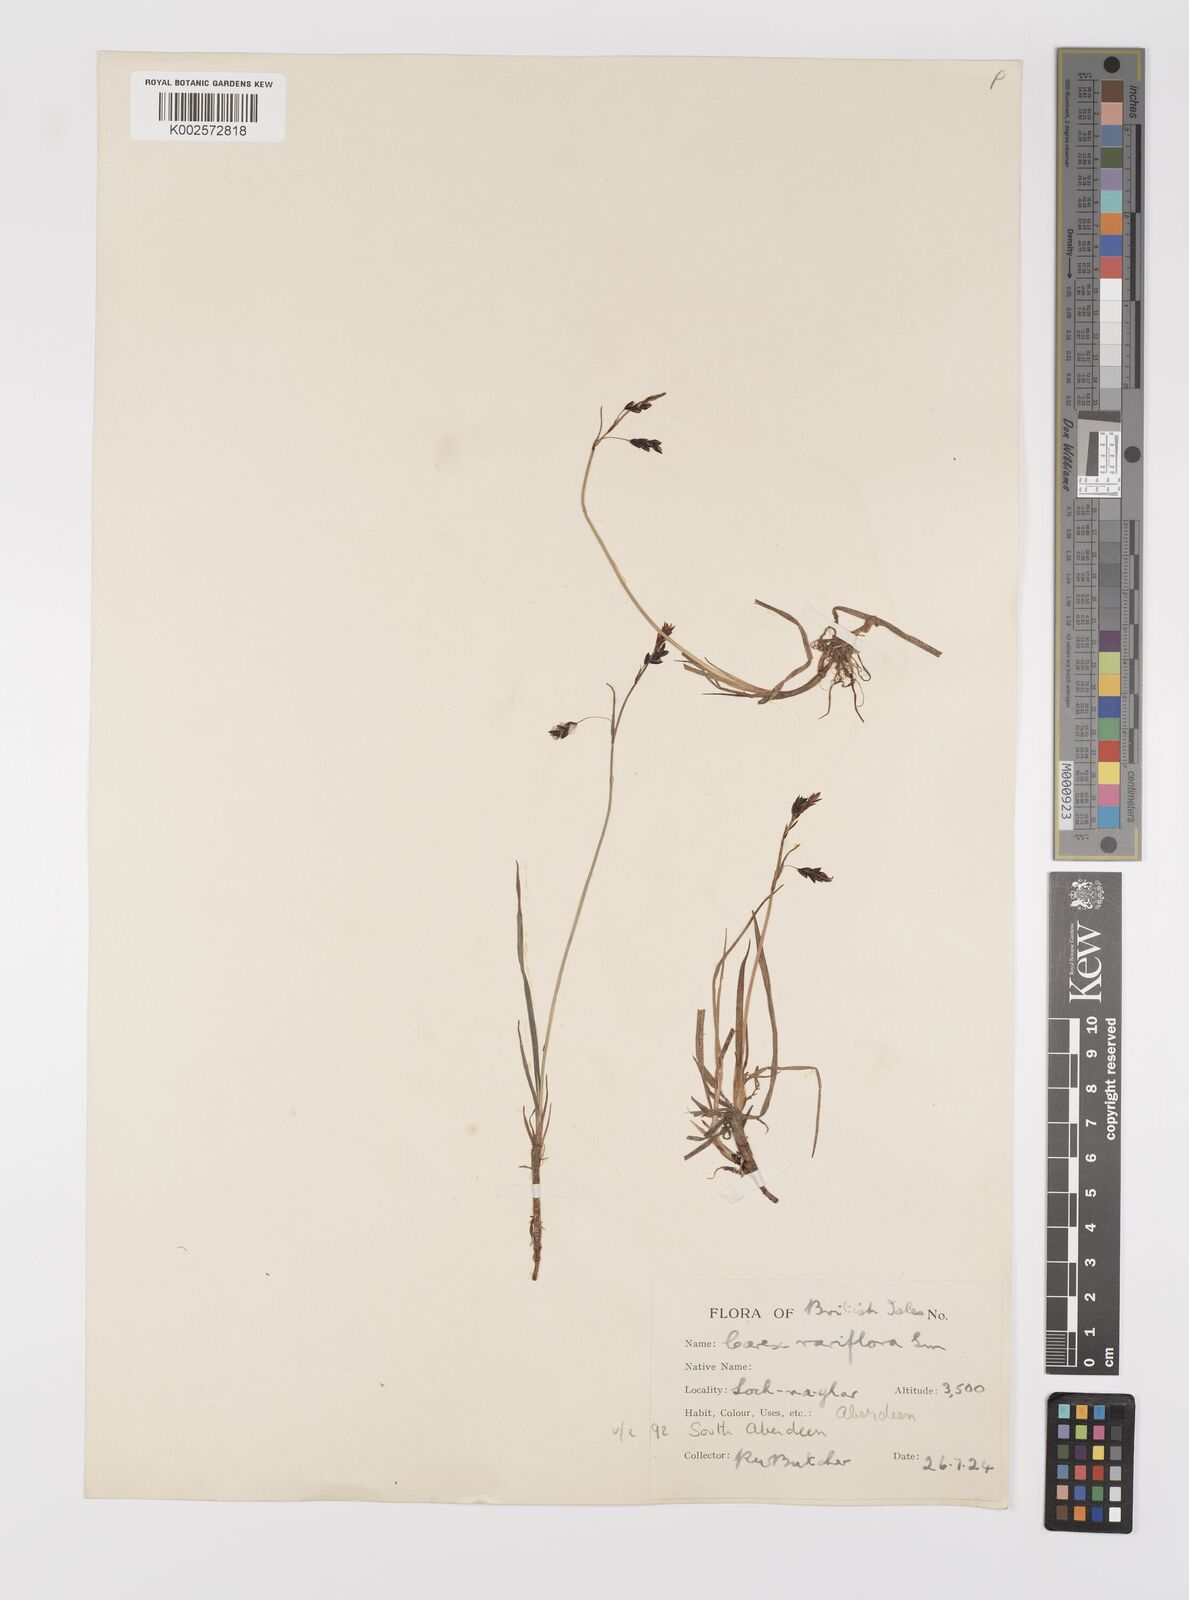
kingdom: Plantae
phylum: Tracheophyta
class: Liliopsida
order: Poales
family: Cyperaceae
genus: Carex
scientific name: Carex rariflora
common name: Loose-flowered alpine sedge
